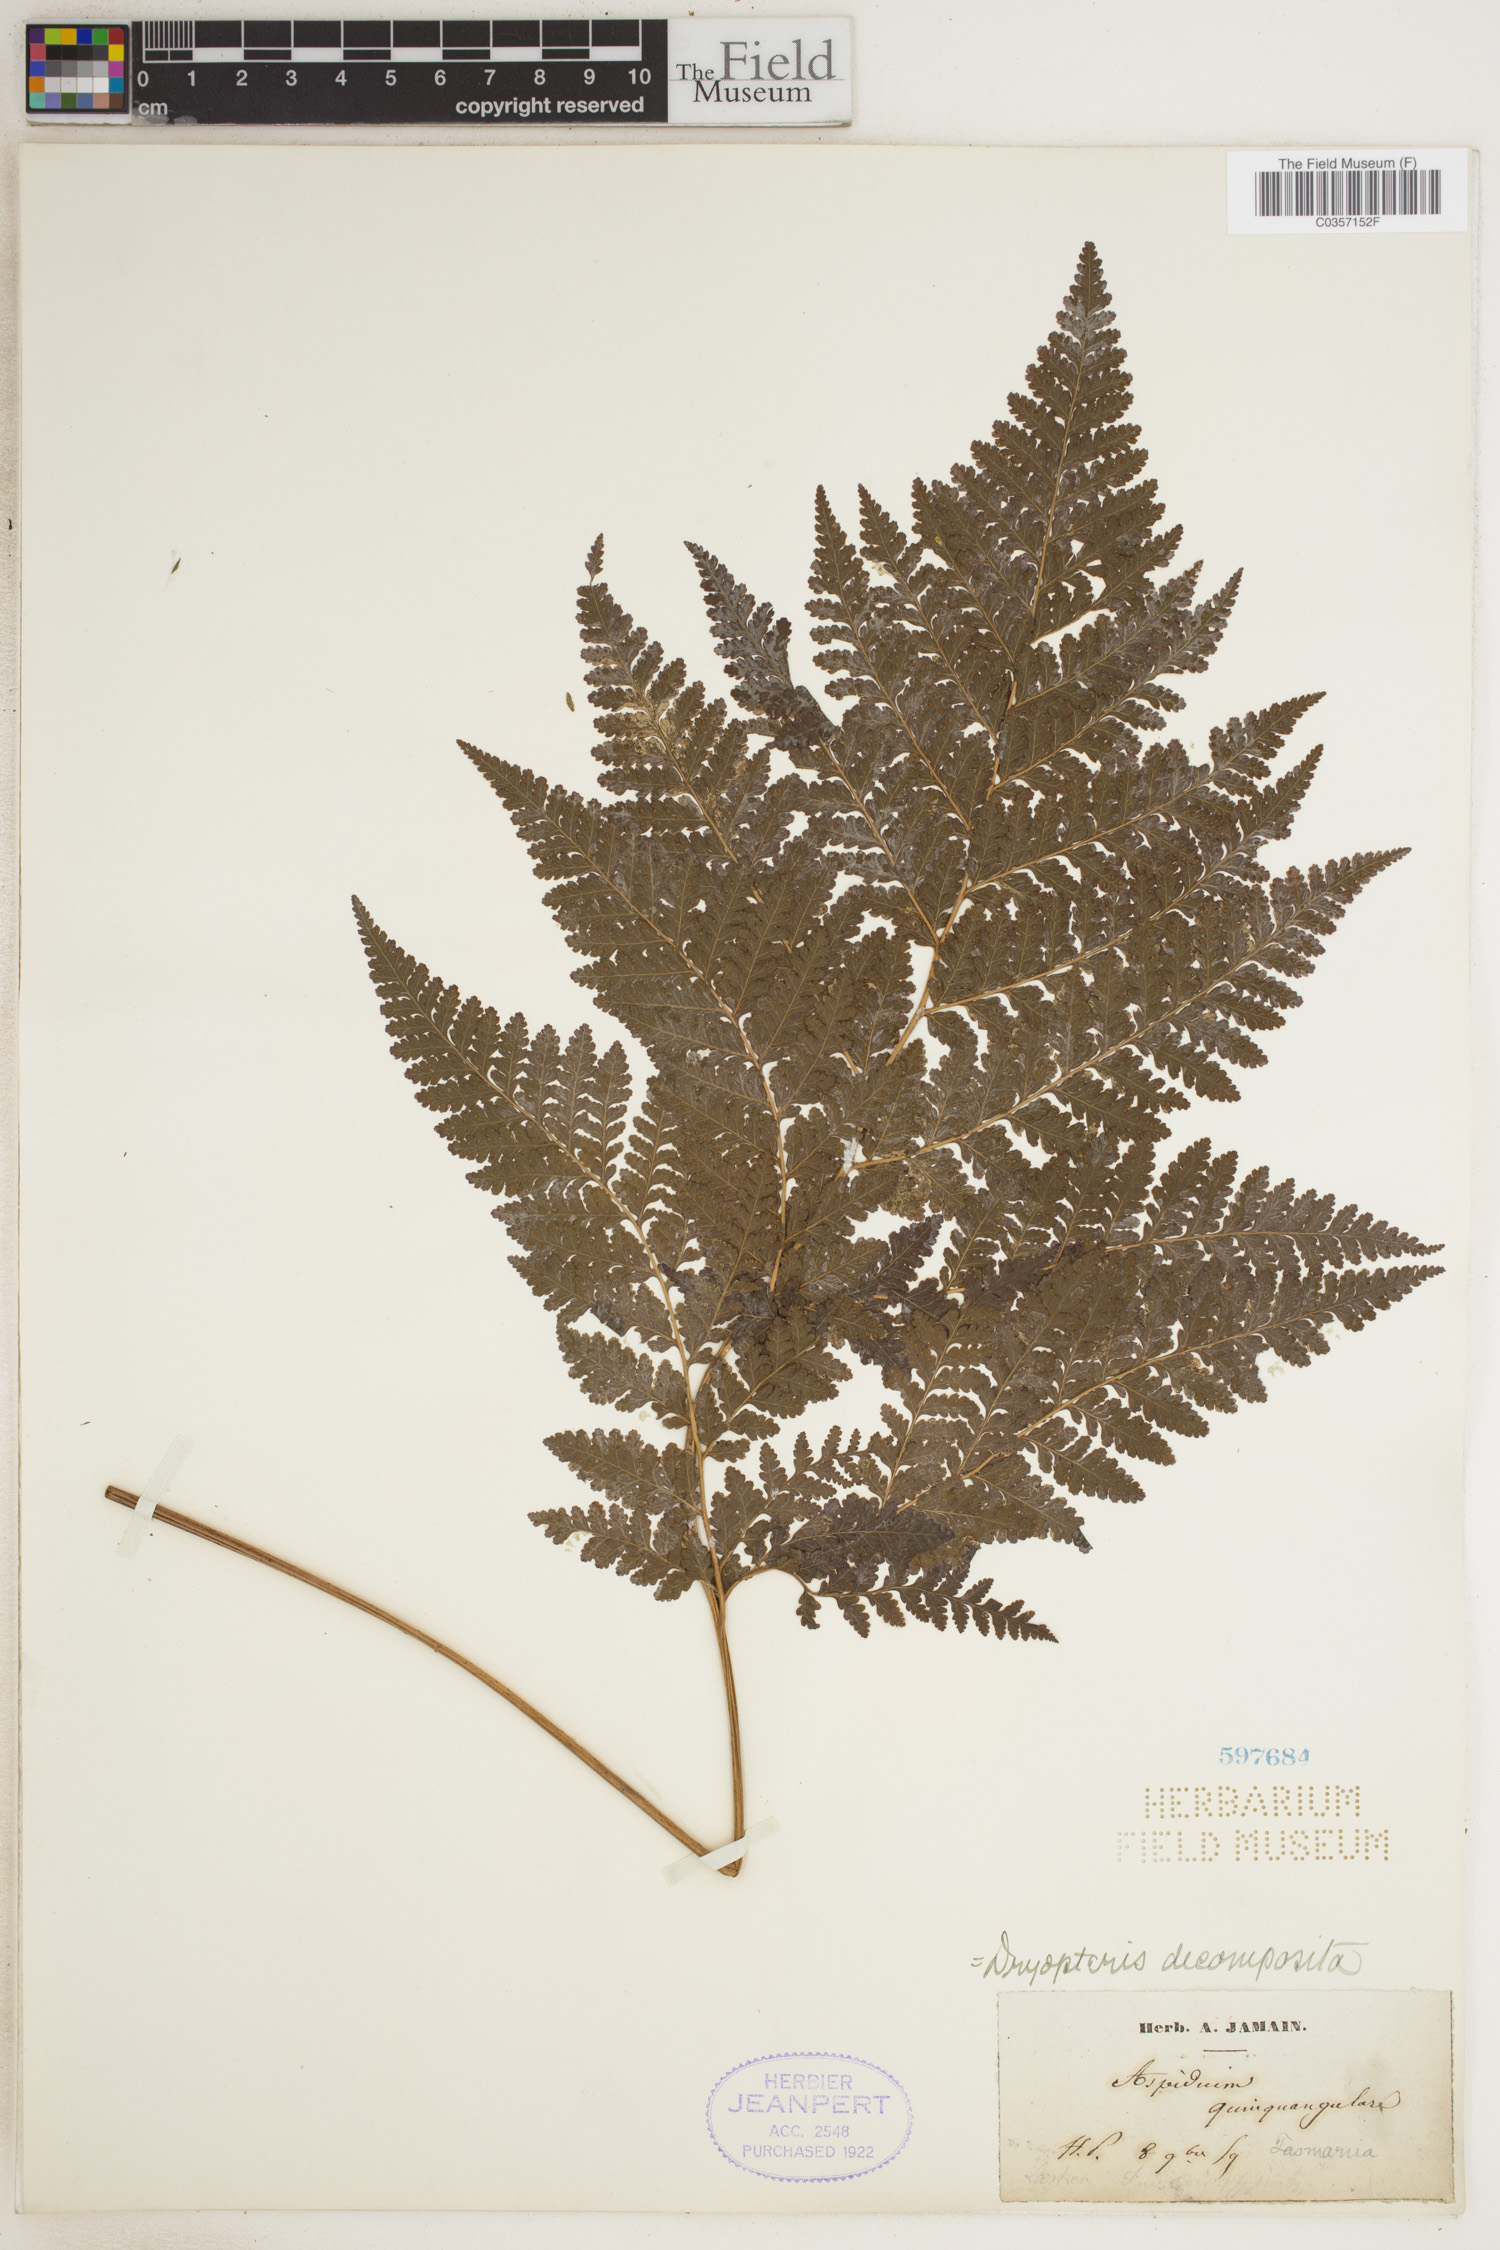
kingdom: Plantae
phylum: Tracheophyta
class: Polypodiopsida
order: Polypodiales
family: Dryopteridaceae
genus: Lastreopsis
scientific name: Lastreopsis decomposita
